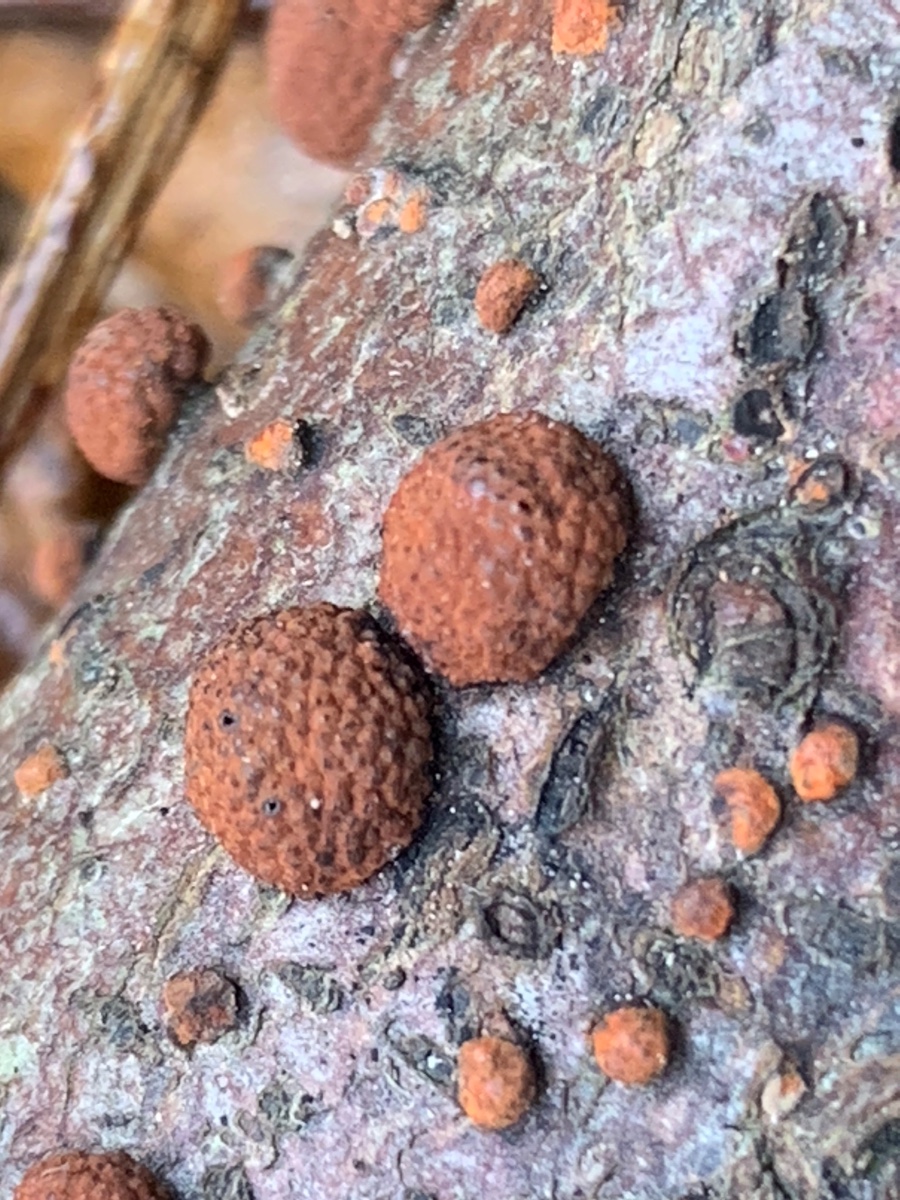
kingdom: Fungi
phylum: Ascomycota
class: Sordariomycetes
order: Xylariales
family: Hypoxylaceae
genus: Hypoxylon
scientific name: Hypoxylon fragiforme
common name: kuljordbær
